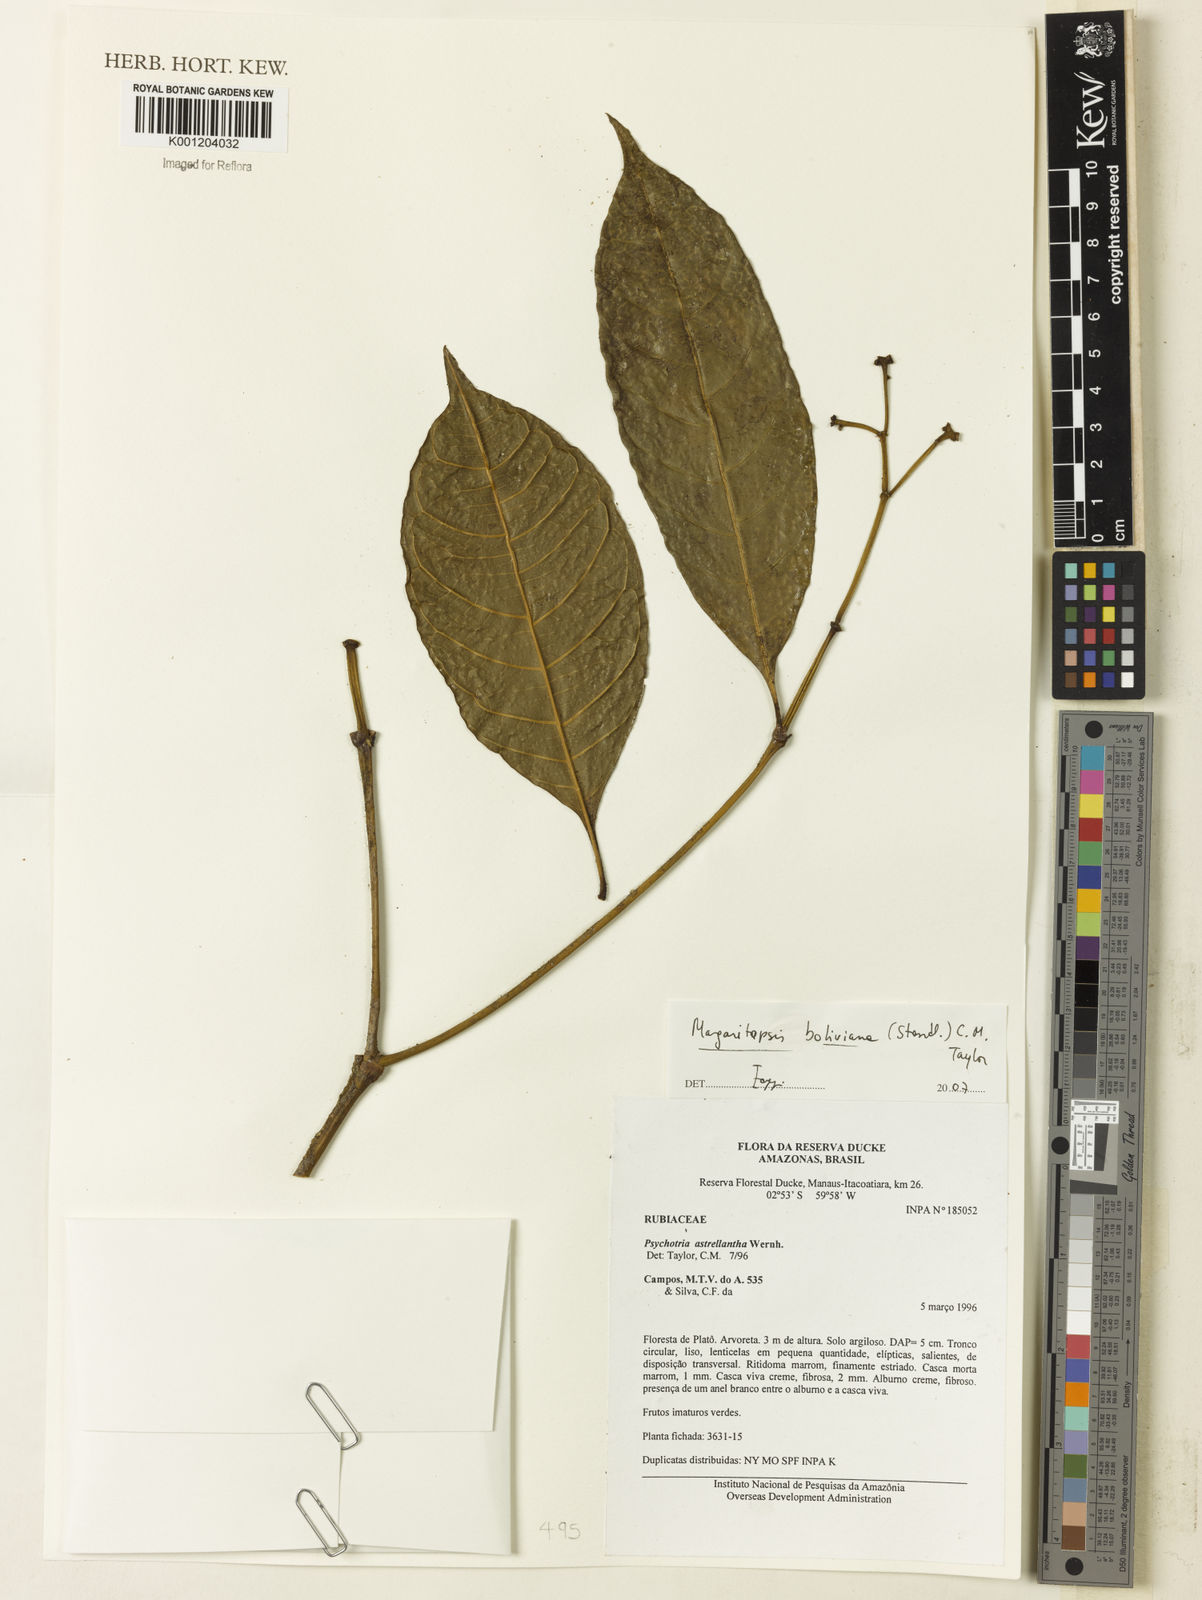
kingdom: Plantae
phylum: Tracheophyta
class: Magnoliopsida
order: Gentianales
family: Rubiaceae
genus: Eumachia
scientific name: Eumachia boliviana
